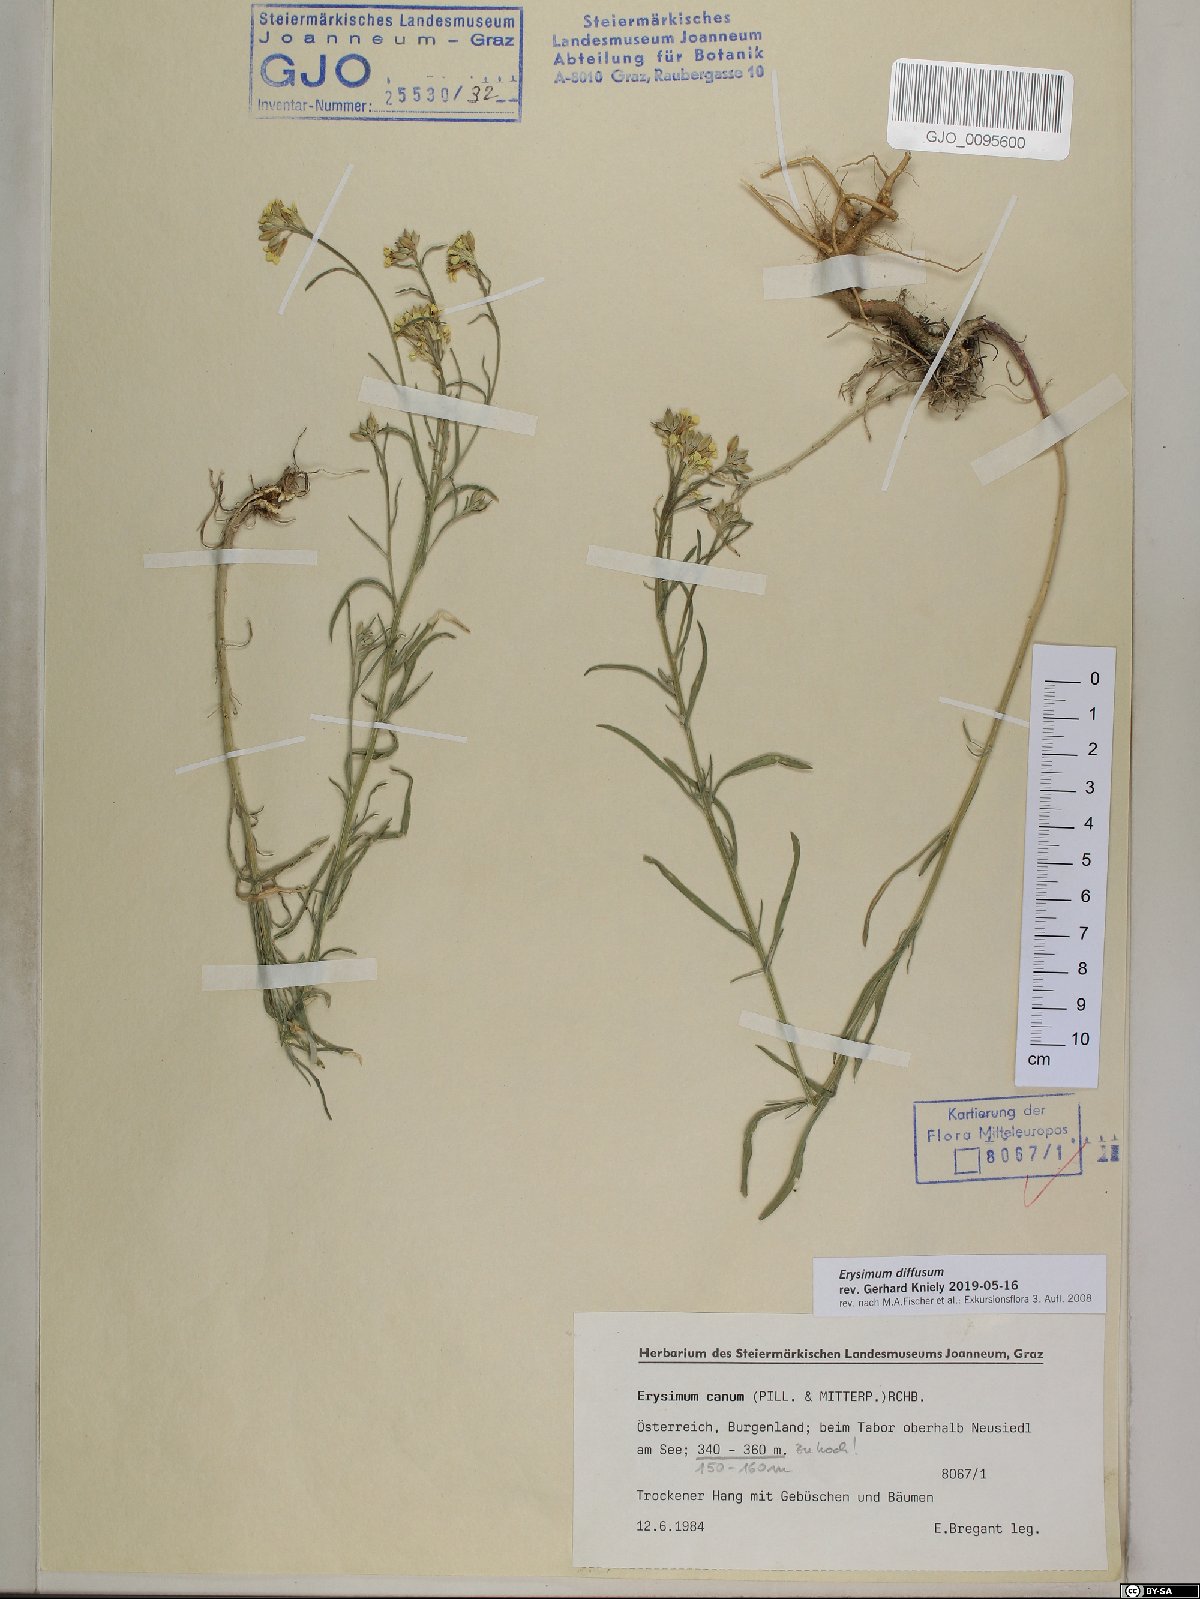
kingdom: Plantae
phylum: Tracheophyta
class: Magnoliopsida
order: Brassicales
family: Brassicaceae
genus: Erysimum
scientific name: Erysimum diffusum
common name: Diffuse wallflower
